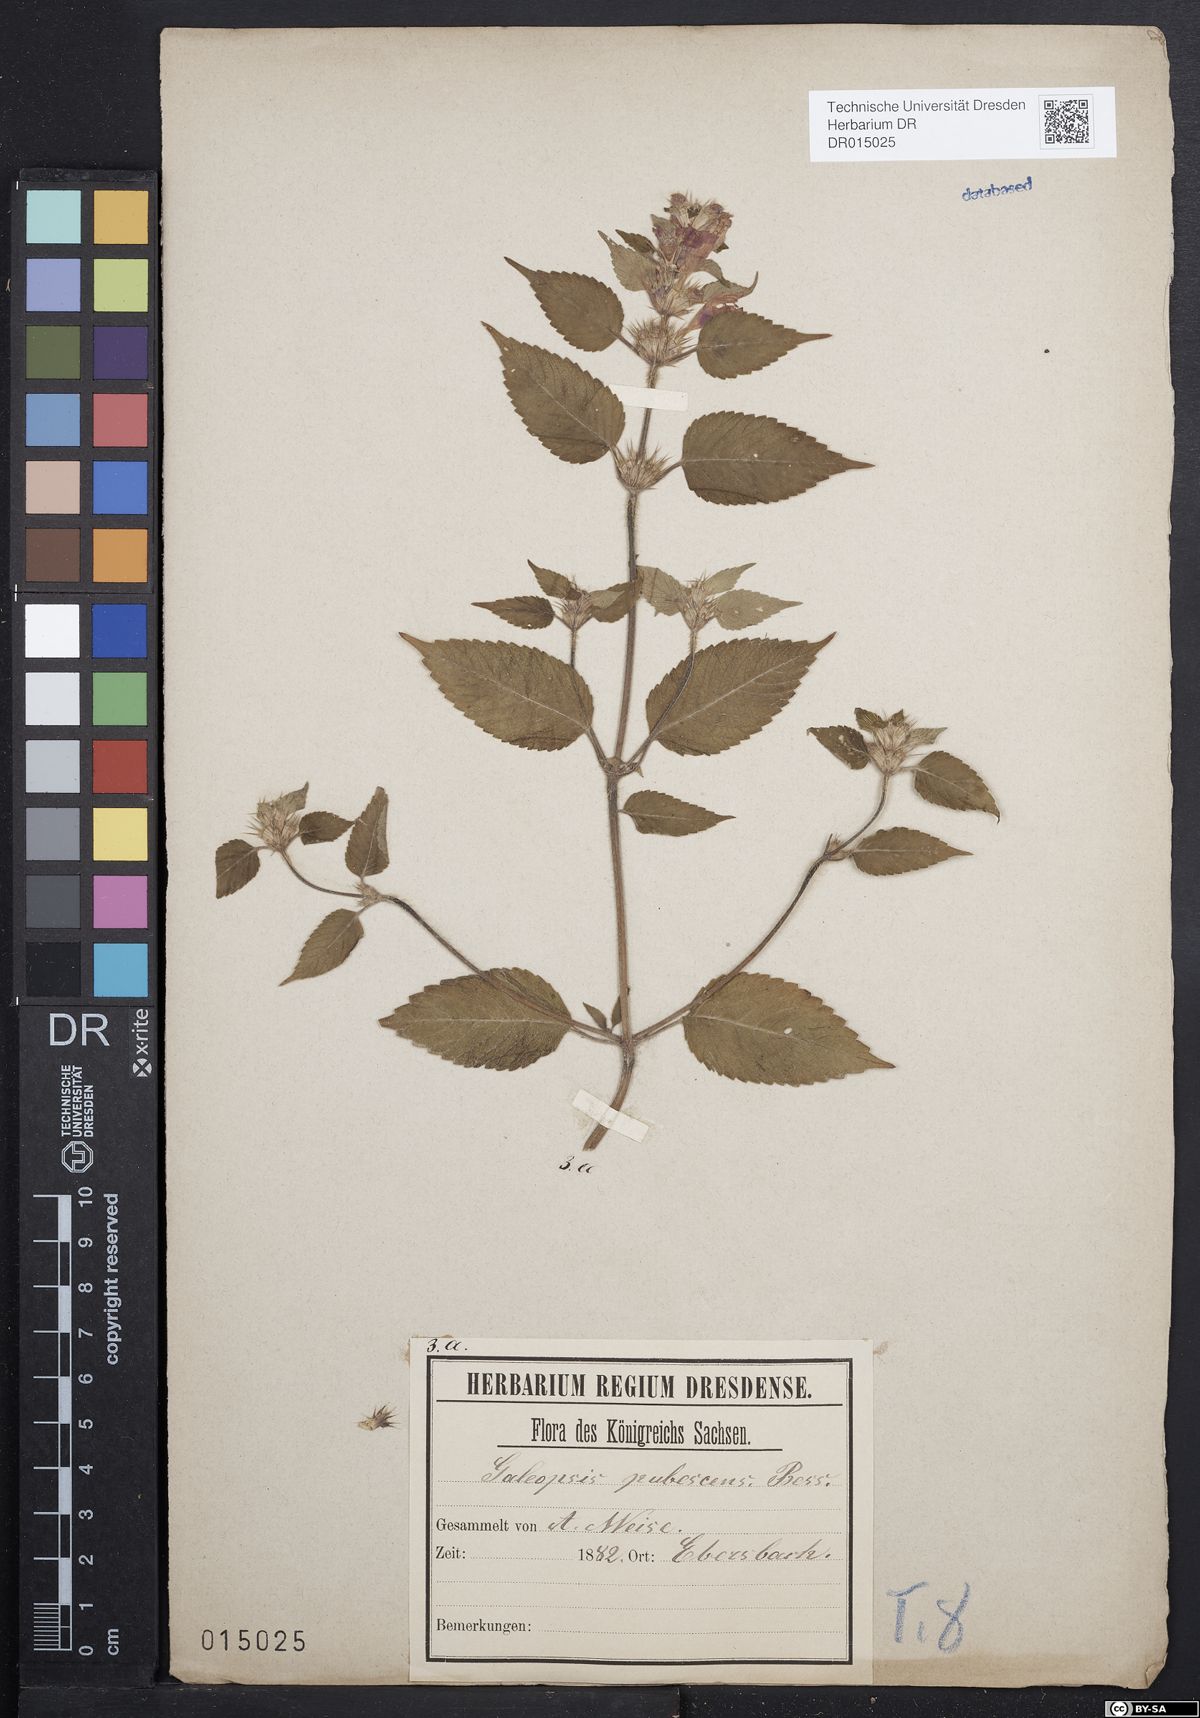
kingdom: Plantae
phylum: Tracheophyta
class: Magnoliopsida
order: Lamiales
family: Lamiaceae
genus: Galeopsis
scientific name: Galeopsis pubescens
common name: Downy hemp-nettle
